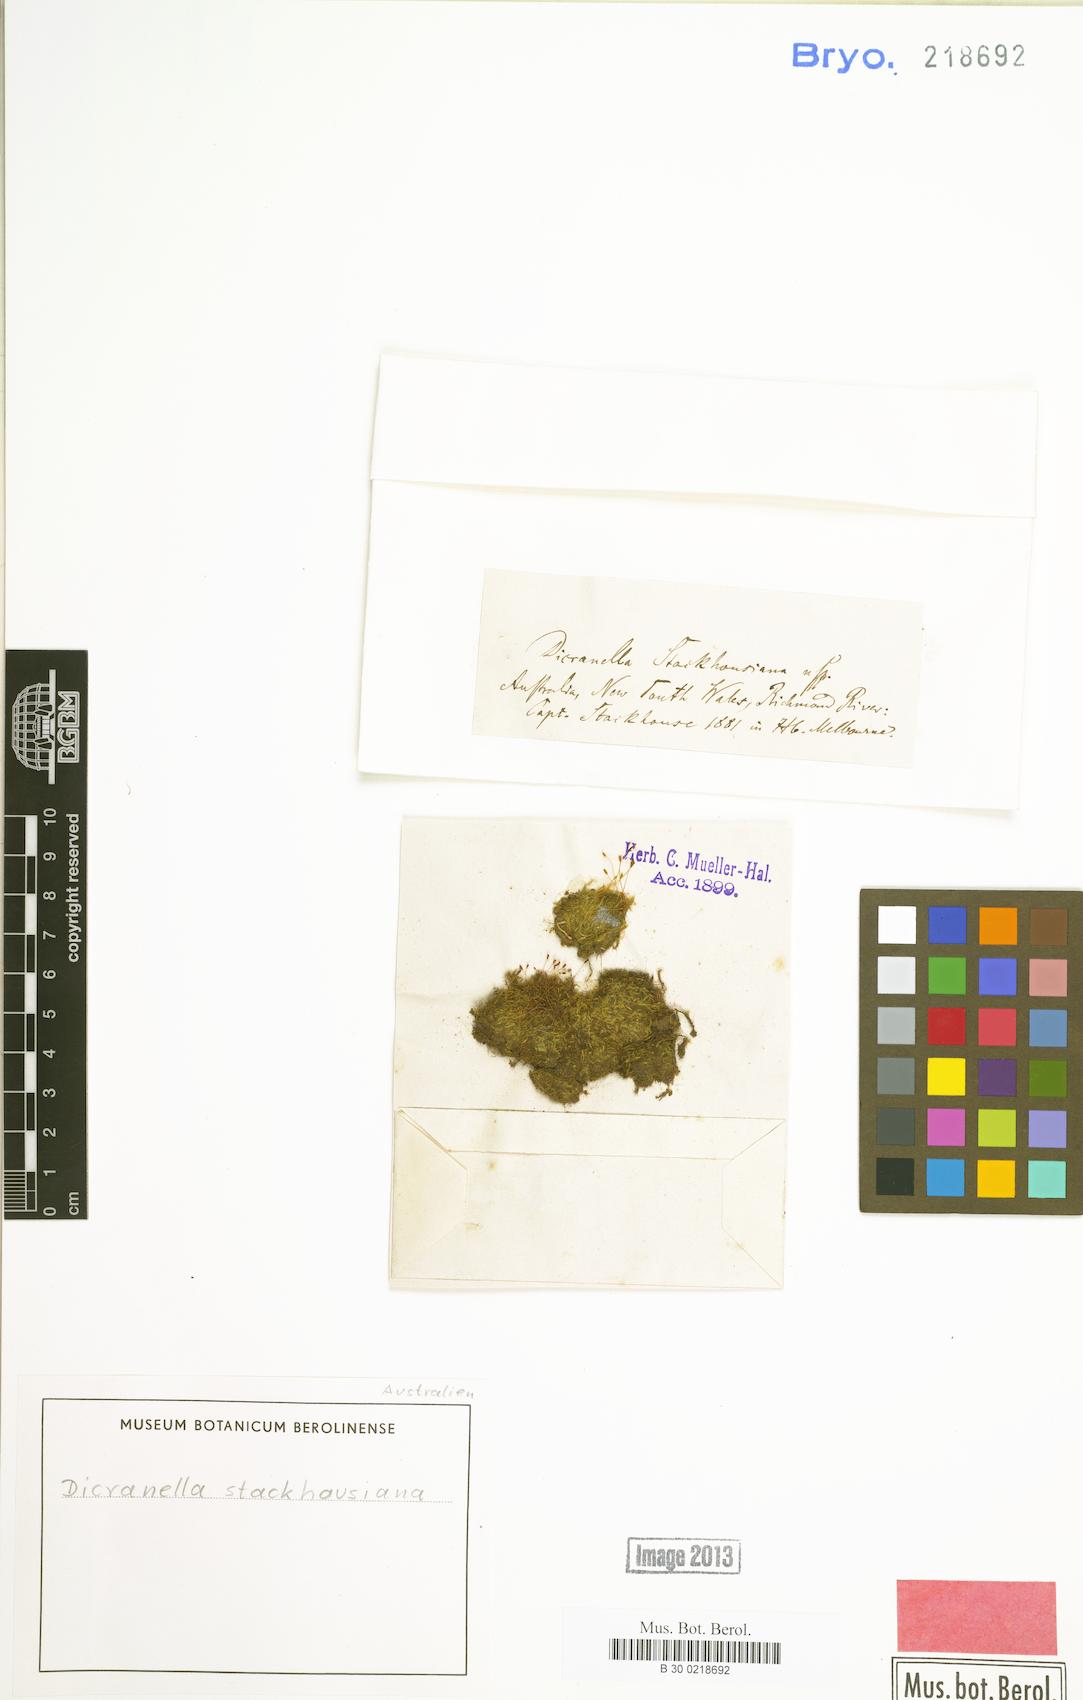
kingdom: Plantae
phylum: Bryophyta
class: Bryopsida
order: Dicranales
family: Dicranellaceae
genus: Dicranella
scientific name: Dicranella stackhousiana
